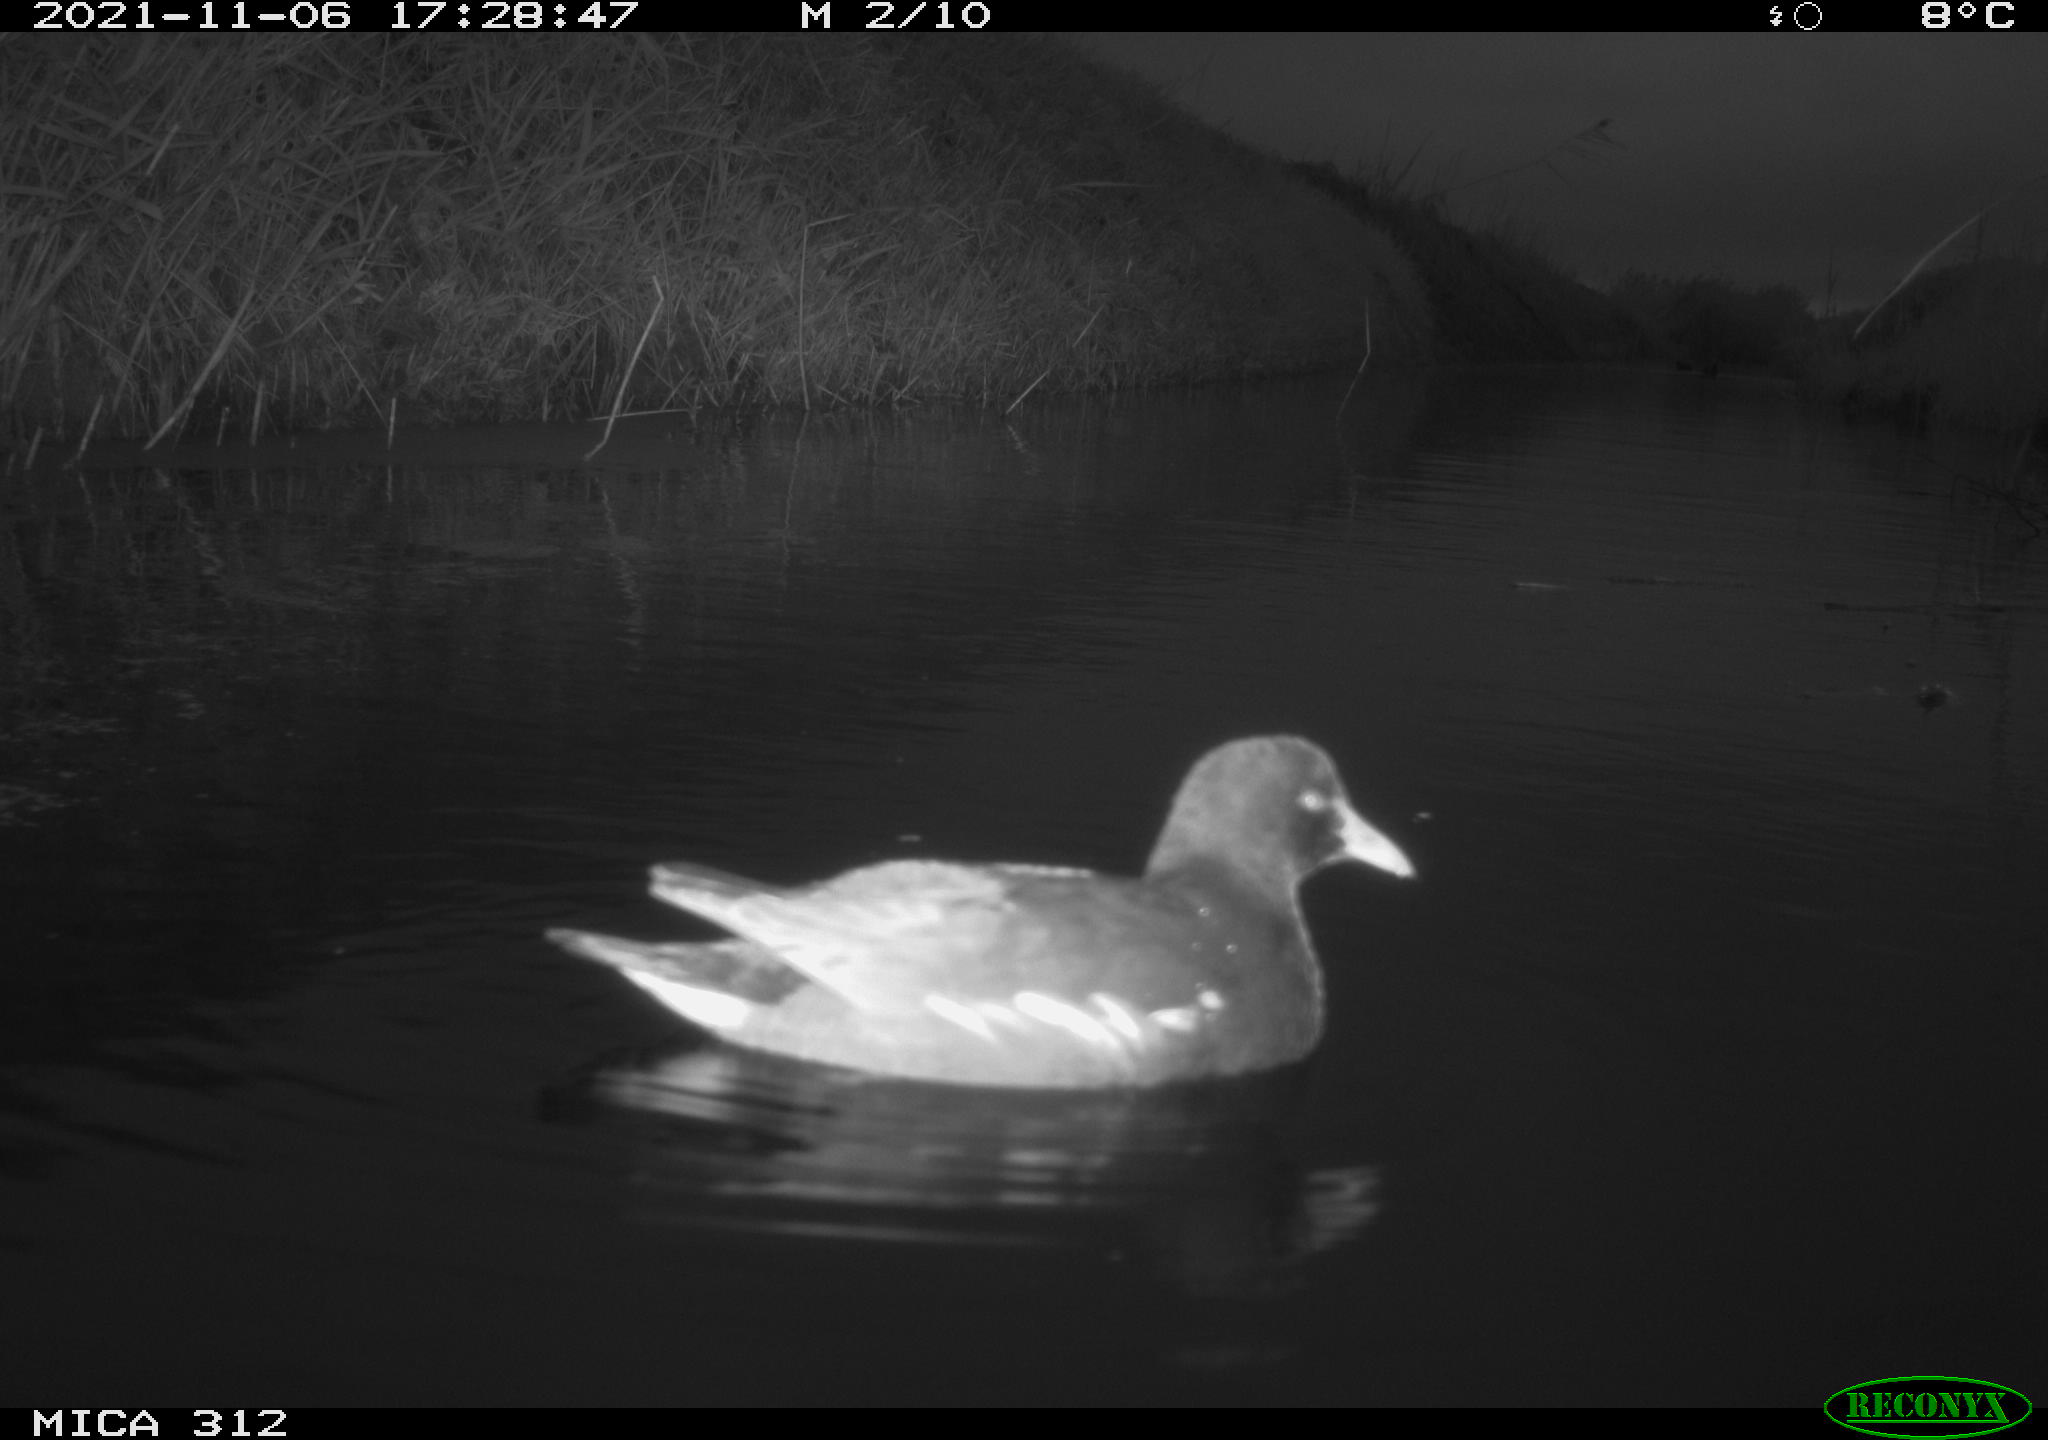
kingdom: Animalia
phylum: Chordata
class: Aves
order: Gruiformes
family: Rallidae
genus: Gallinula
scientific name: Gallinula chloropus
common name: Common moorhen
